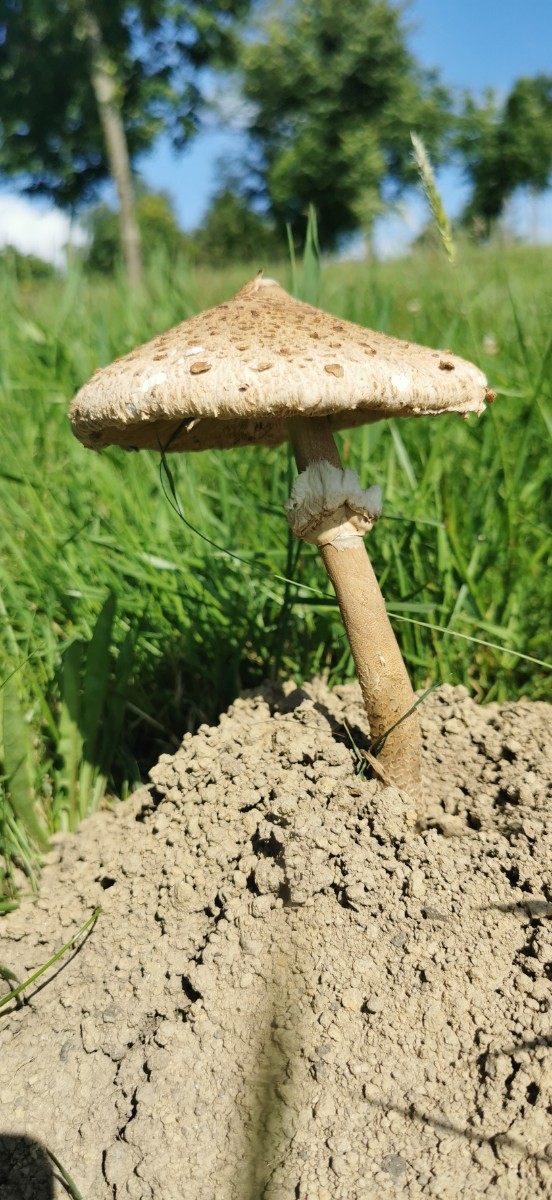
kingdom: Fungi
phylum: Basidiomycota
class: Agaricomycetes
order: Agaricales
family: Agaricaceae
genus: Macrolepiota
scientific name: Macrolepiota procera
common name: stor kæmpeparasolhat
